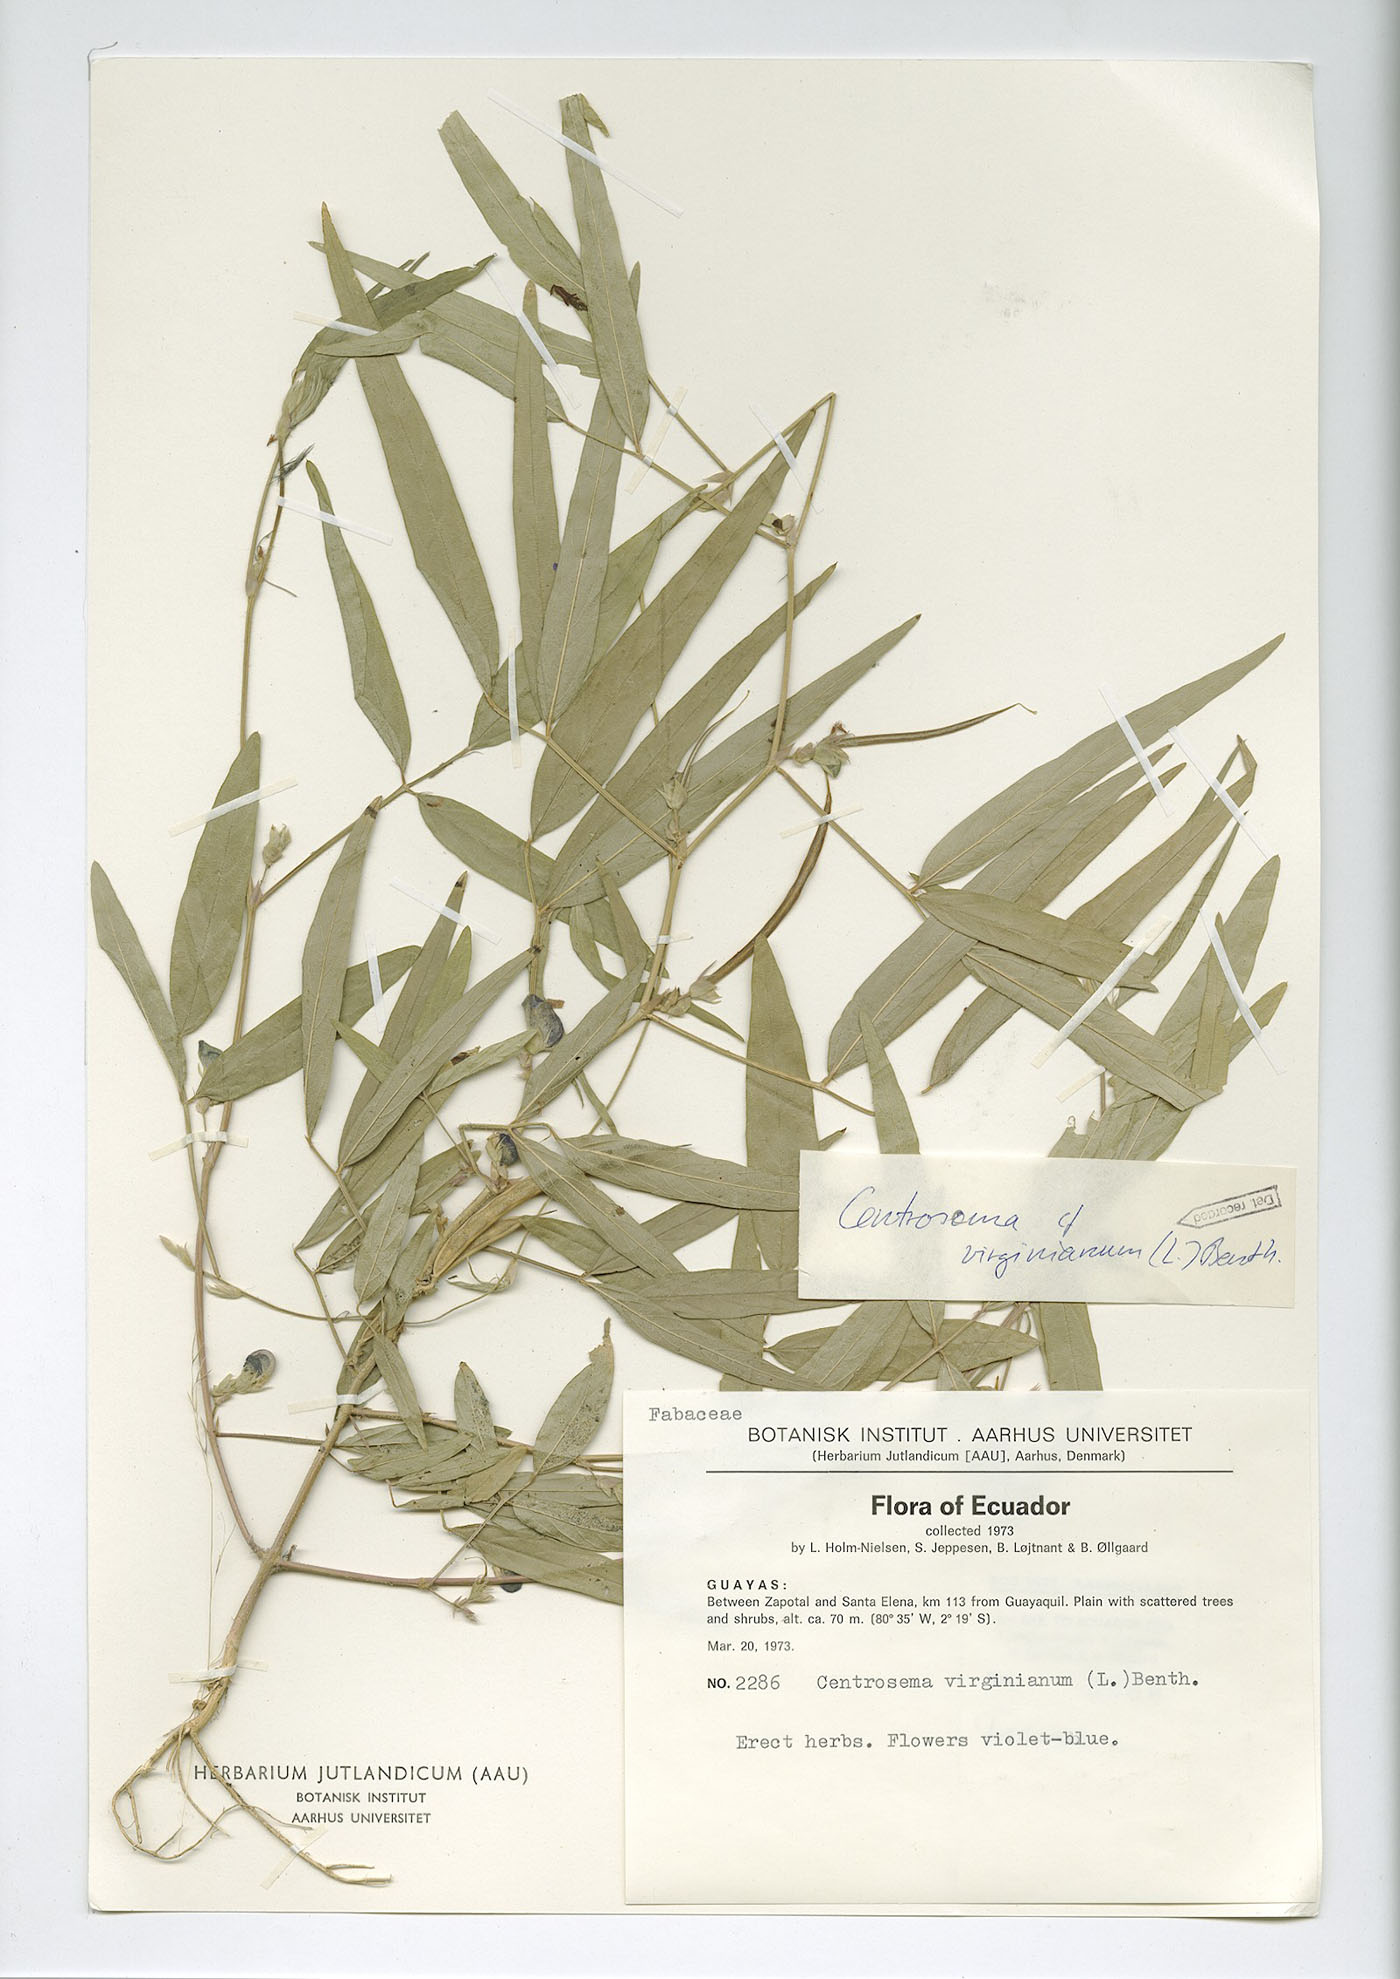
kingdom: Plantae
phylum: Tracheophyta
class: Magnoliopsida
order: Fabales
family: Fabaceae
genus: Centrosema
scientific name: Centrosema pascuorum
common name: Centurion
